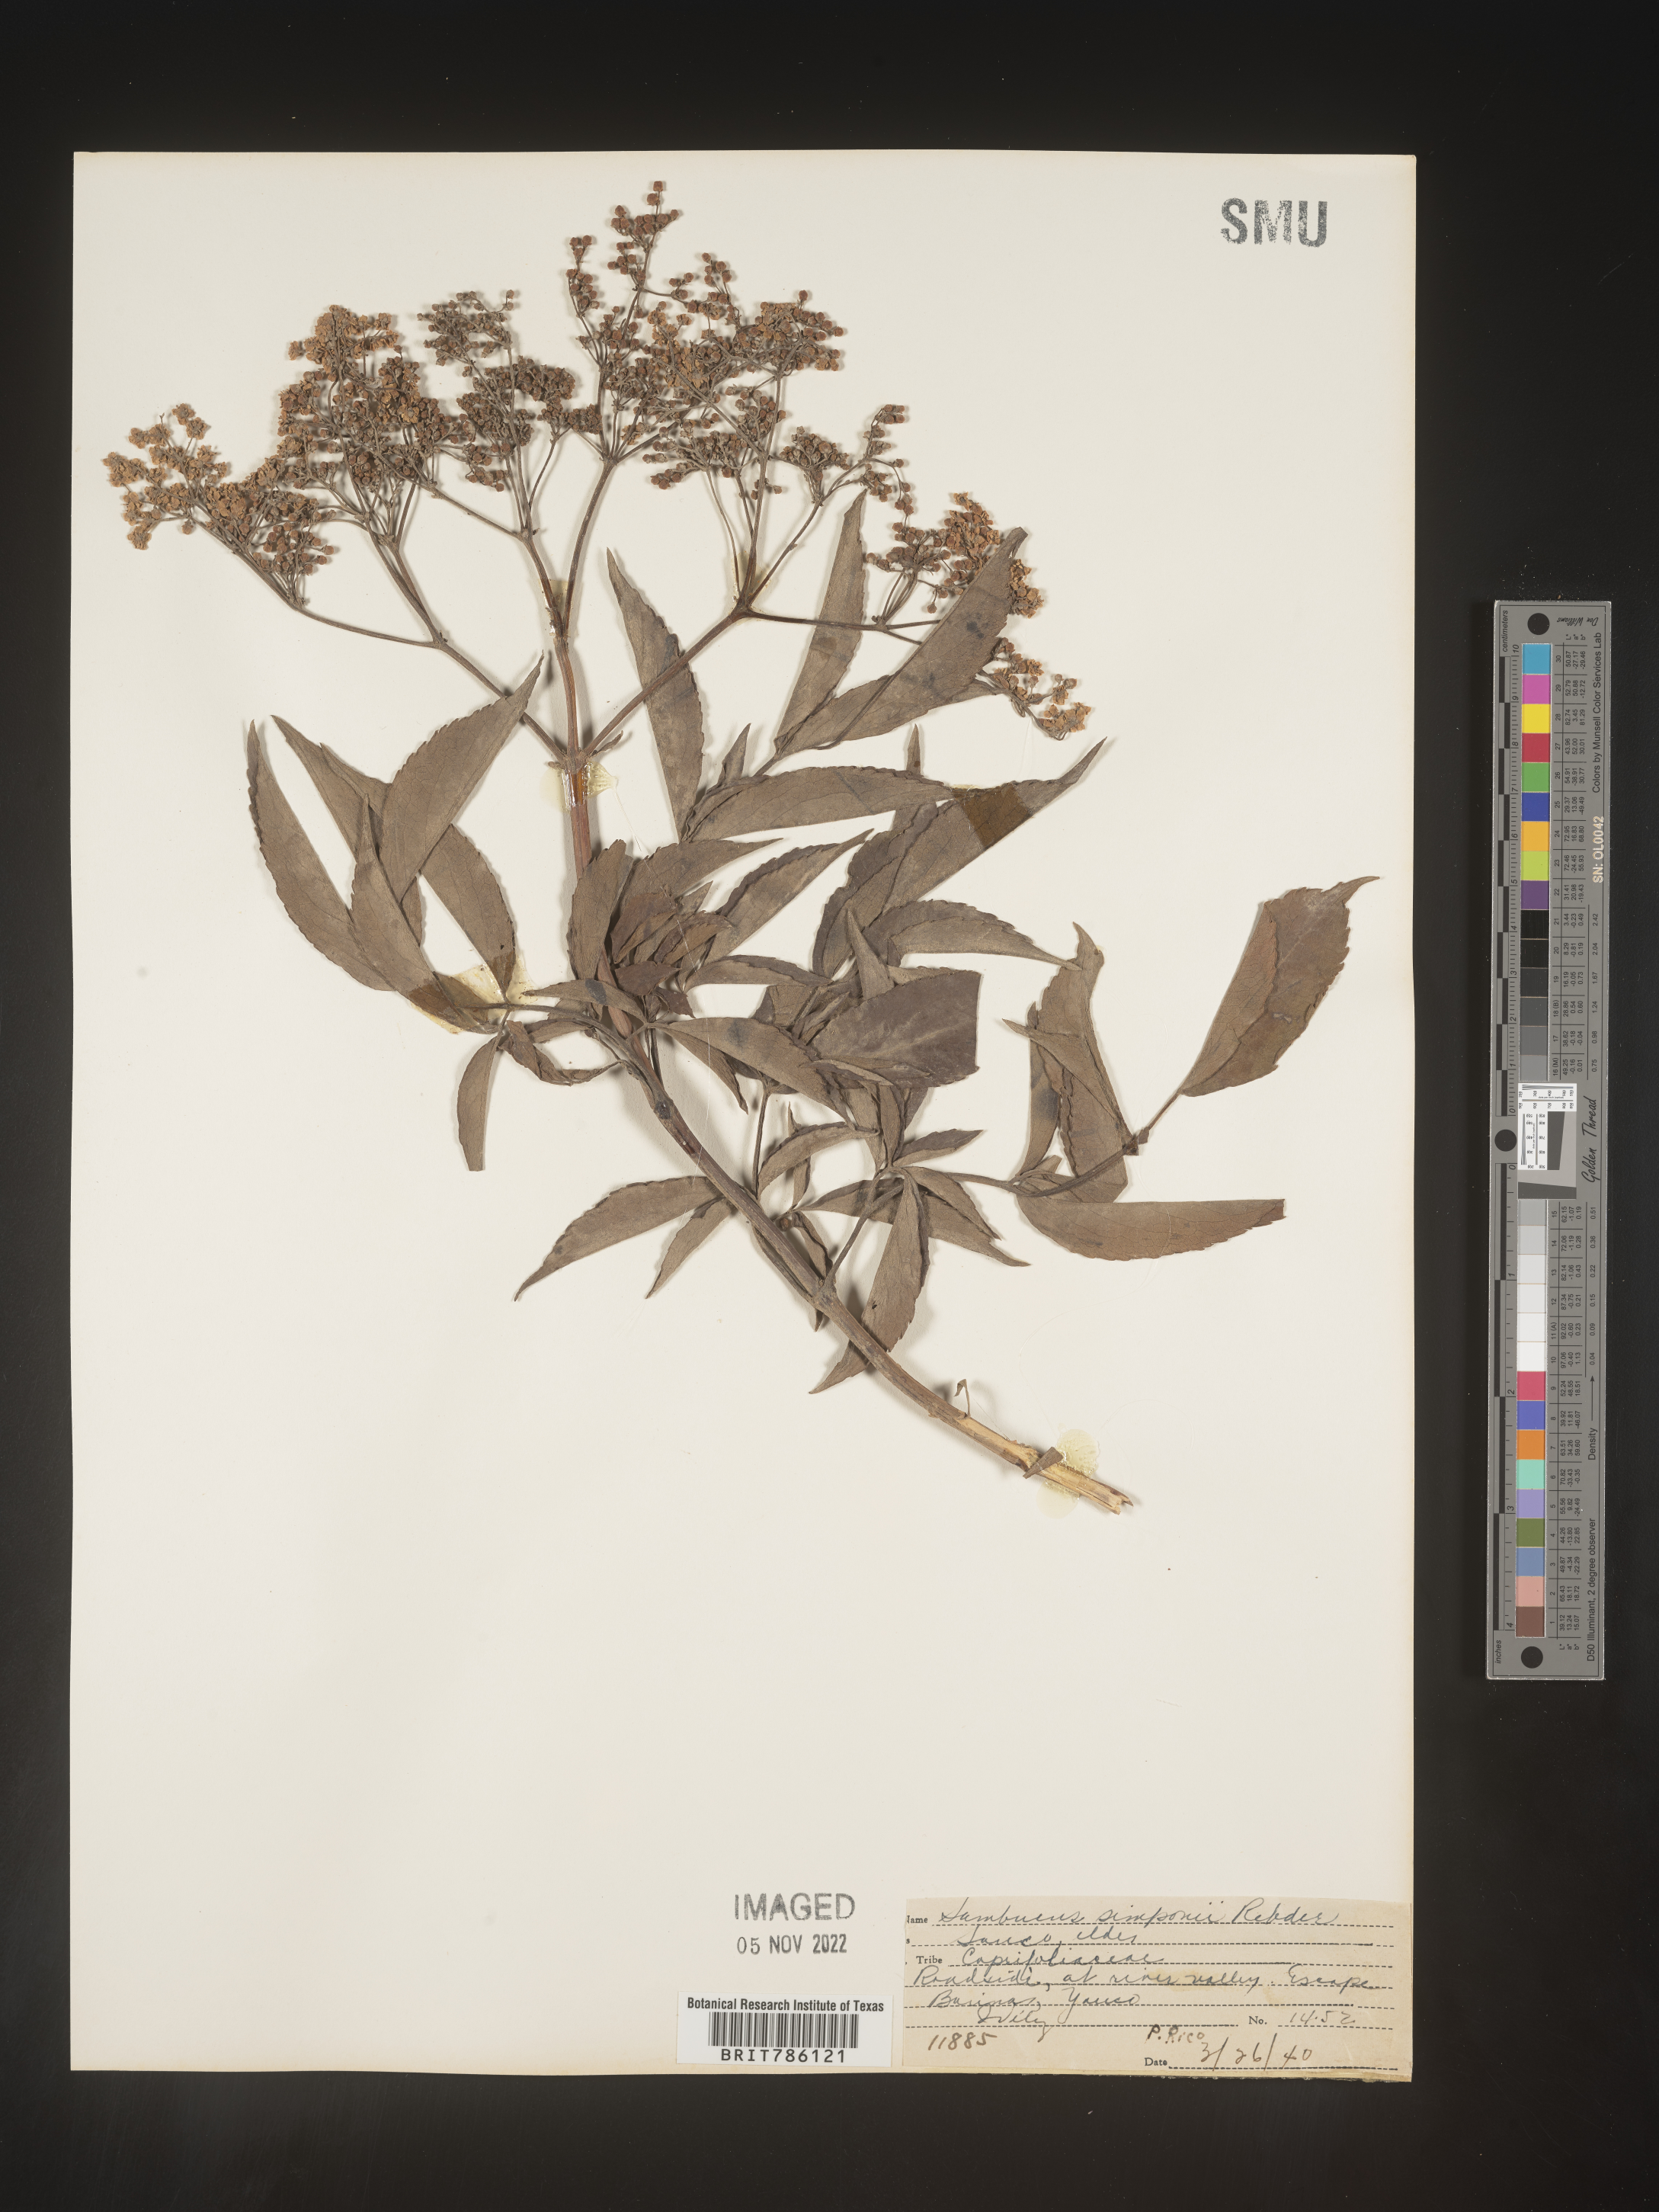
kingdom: Plantae
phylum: Tracheophyta
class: Magnoliopsida
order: Dipsacales
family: Viburnaceae
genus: Sambucus
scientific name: Sambucus
